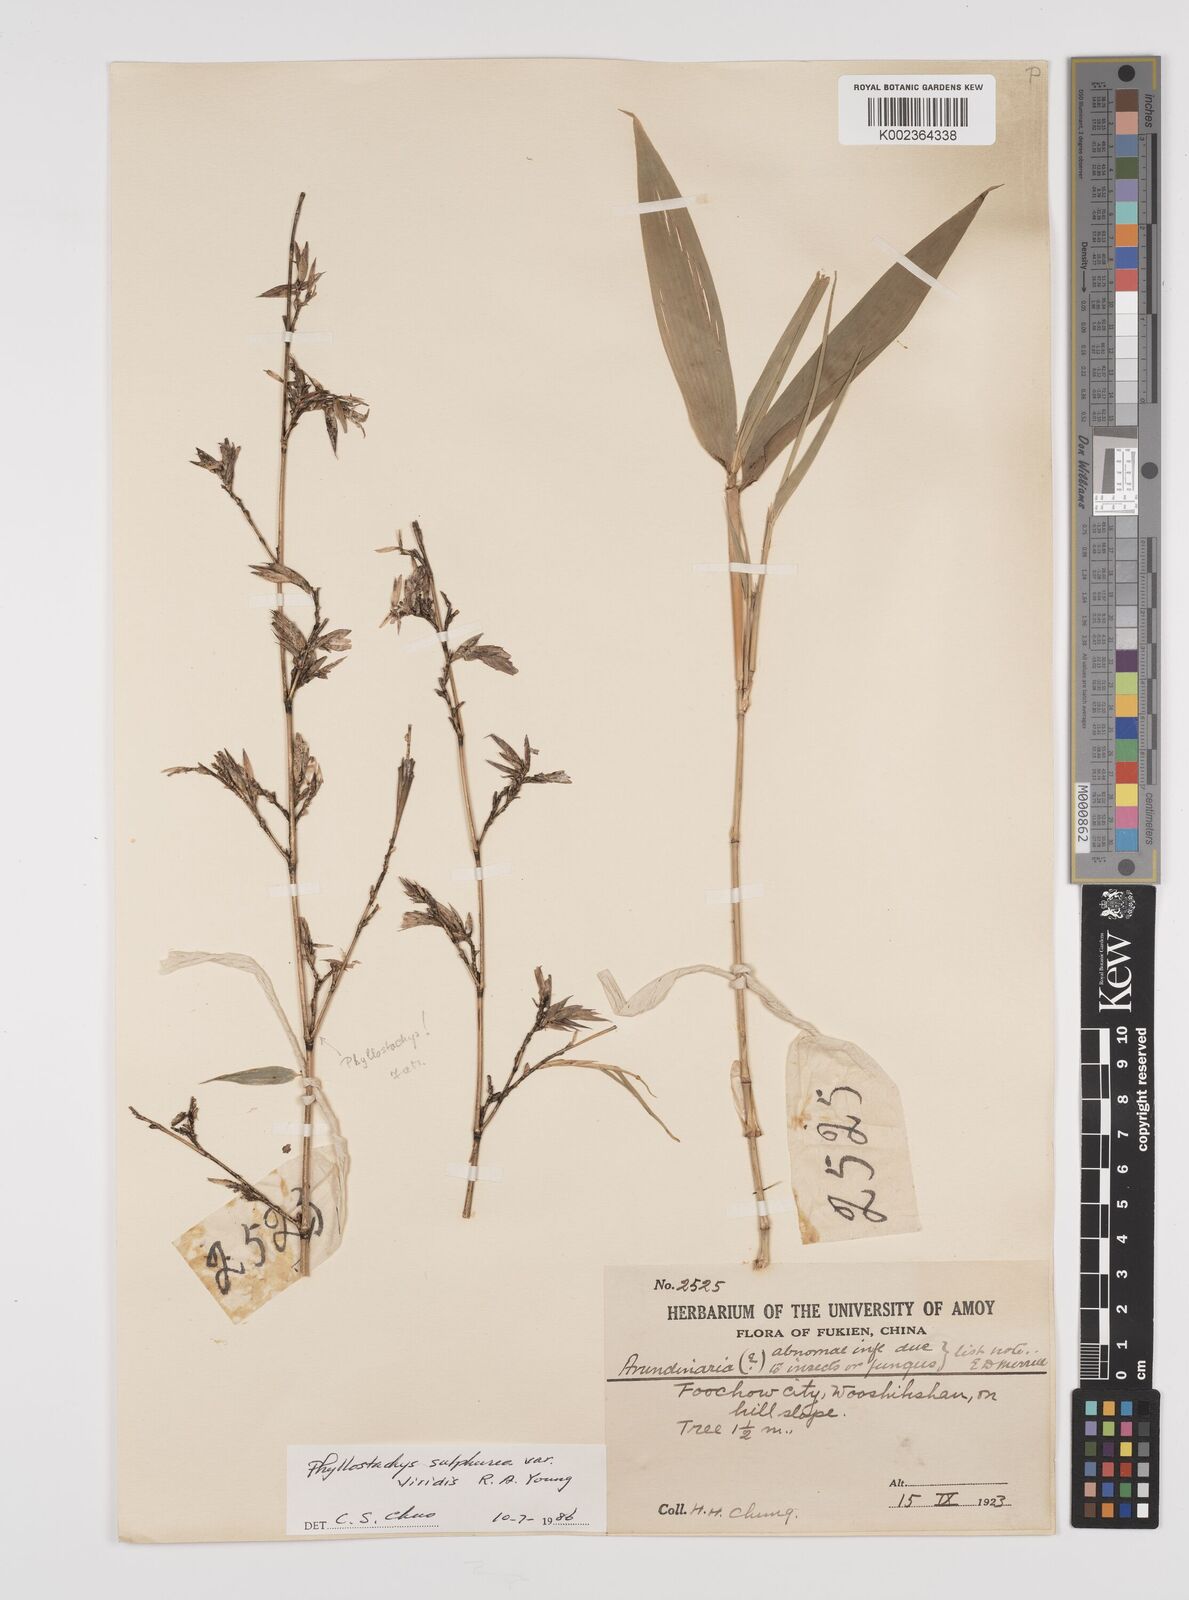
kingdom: Plantae
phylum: Tracheophyta
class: Liliopsida
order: Poales
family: Poaceae
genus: Phyllostachys
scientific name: Phyllostachys sulphurea
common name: Sulphur bamboo
